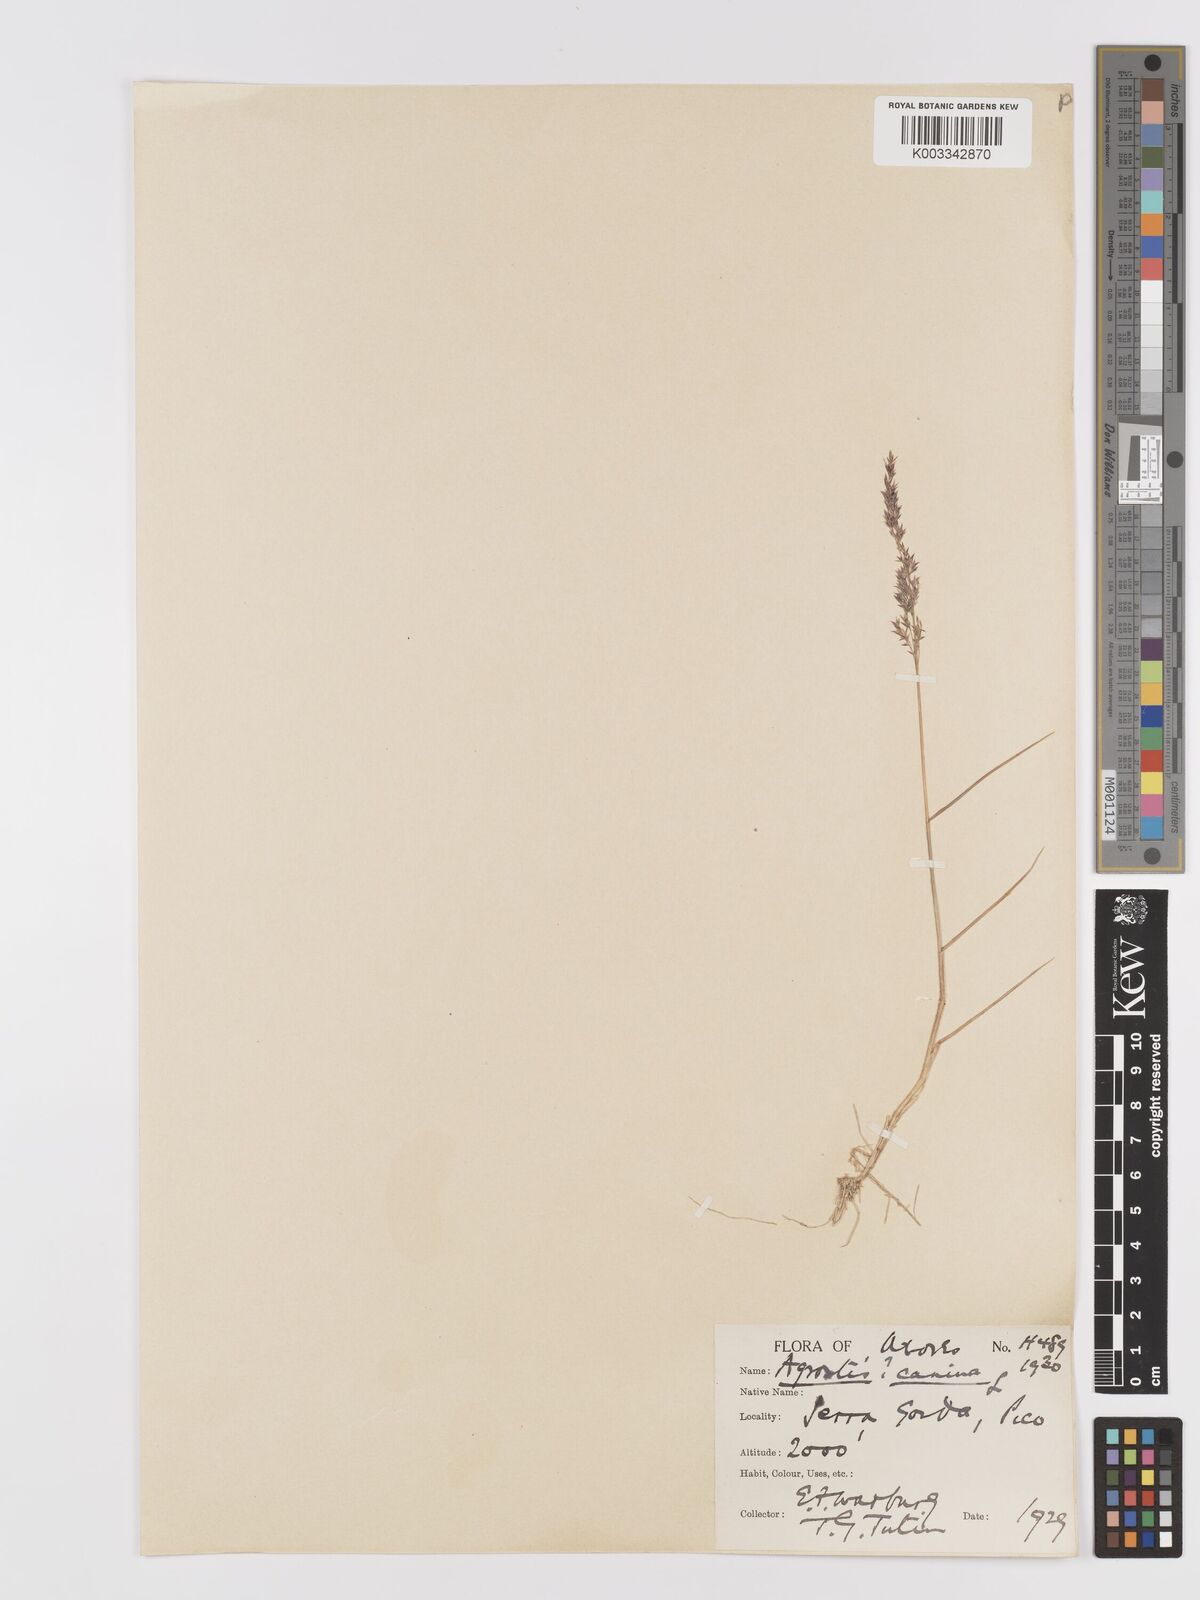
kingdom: Plantae
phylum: Tracheophyta
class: Liliopsida
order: Poales
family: Poaceae
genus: Agrostis
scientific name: Agrostis canina
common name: Velvet bent
